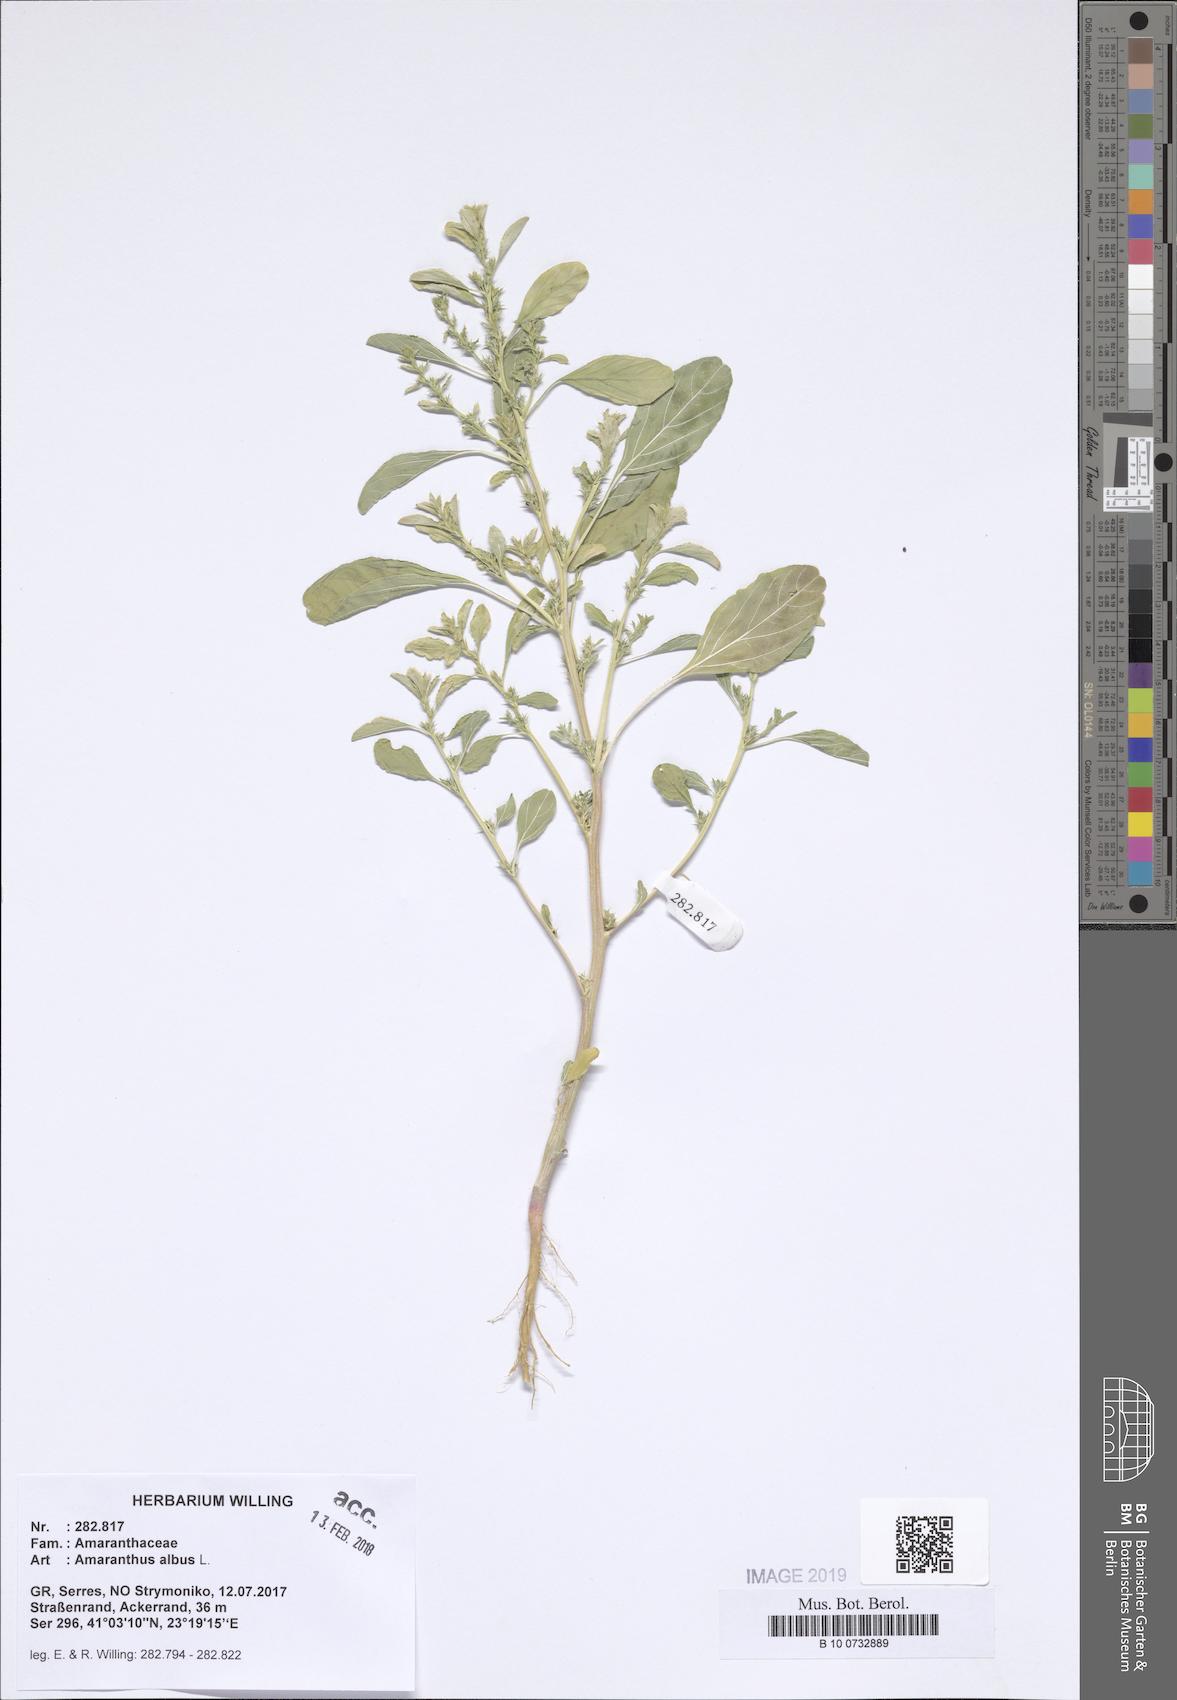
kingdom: Plantae
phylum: Tracheophyta
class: Magnoliopsida
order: Caryophyllales
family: Amaranthaceae
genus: Amaranthus
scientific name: Amaranthus albus
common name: White pigweed
